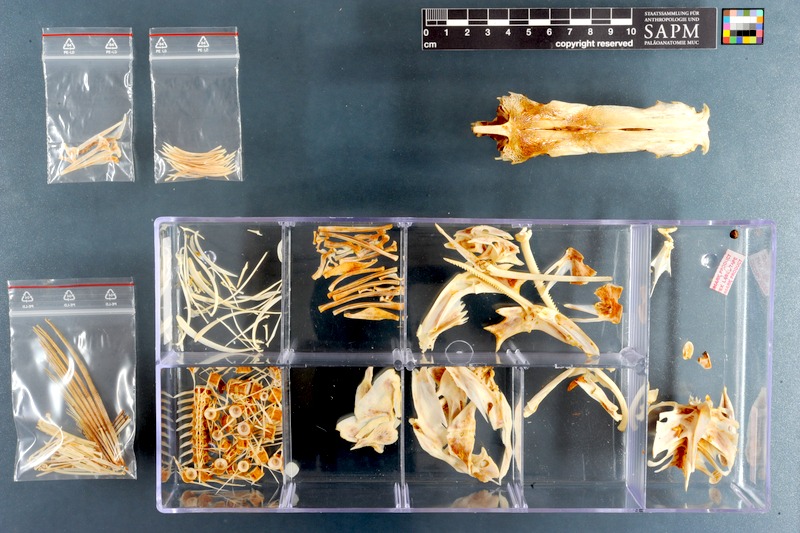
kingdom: Animalia
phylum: Chordata
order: Perciformes
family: Lutjanidae
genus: Lutjanus
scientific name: Lutjanus sebae
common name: Emperor red snapper
